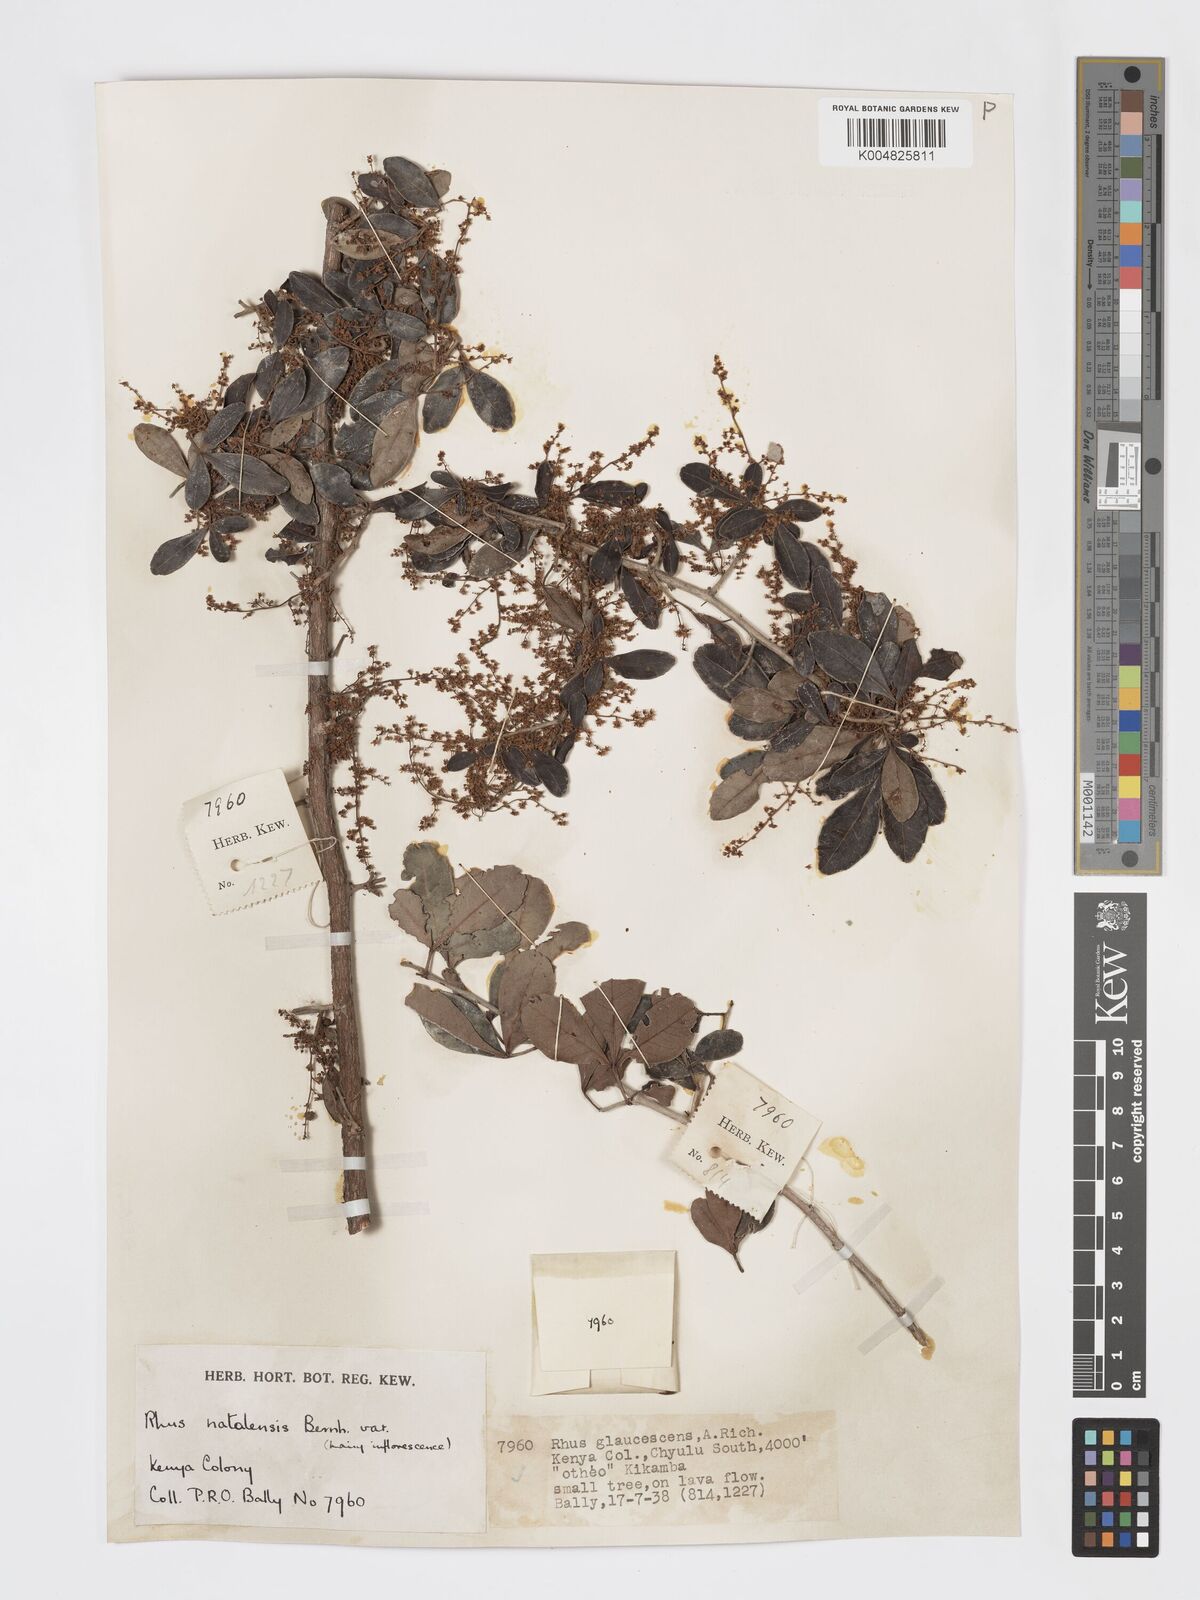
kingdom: Plantae
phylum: Tracheophyta
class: Magnoliopsida
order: Sapindales
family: Anacardiaceae
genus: Searsia
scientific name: Searsia natalensis
